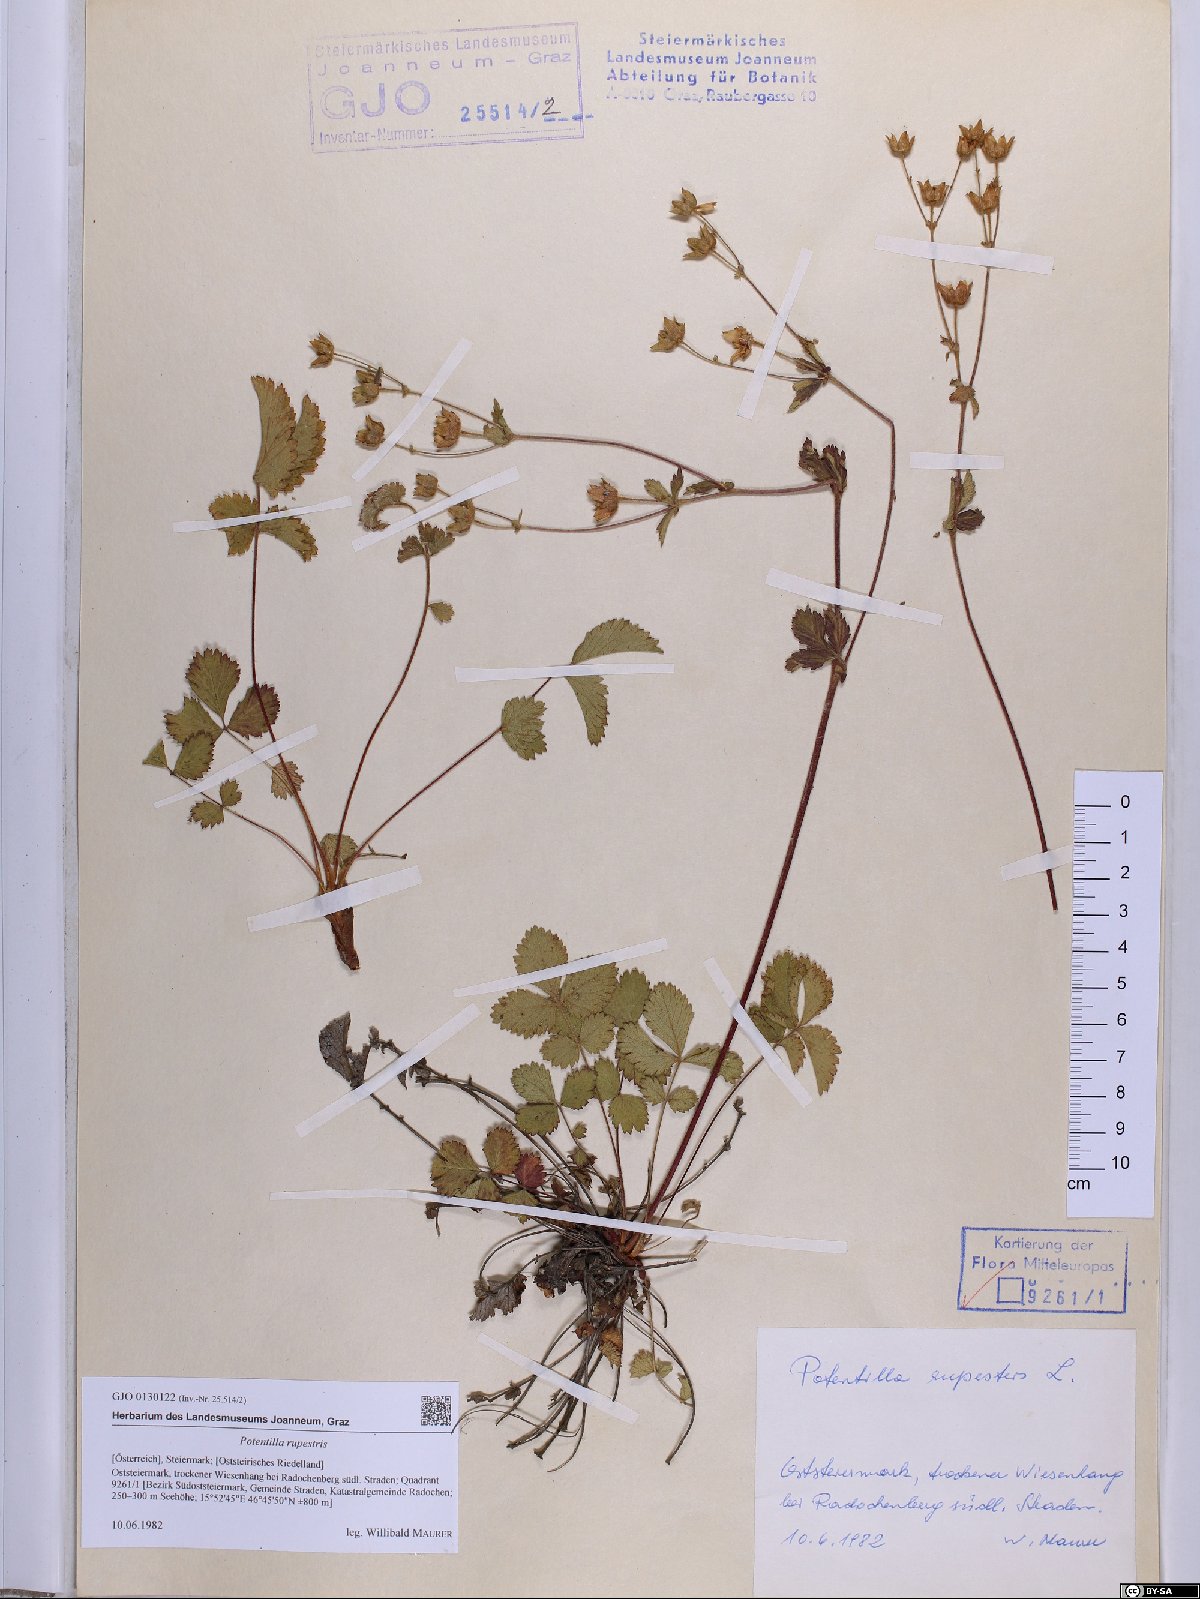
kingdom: Plantae
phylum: Tracheophyta
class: Magnoliopsida
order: Rosales
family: Rosaceae
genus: Drymocallis
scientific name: Drymocallis rupestris
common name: Rock cinquefoil
